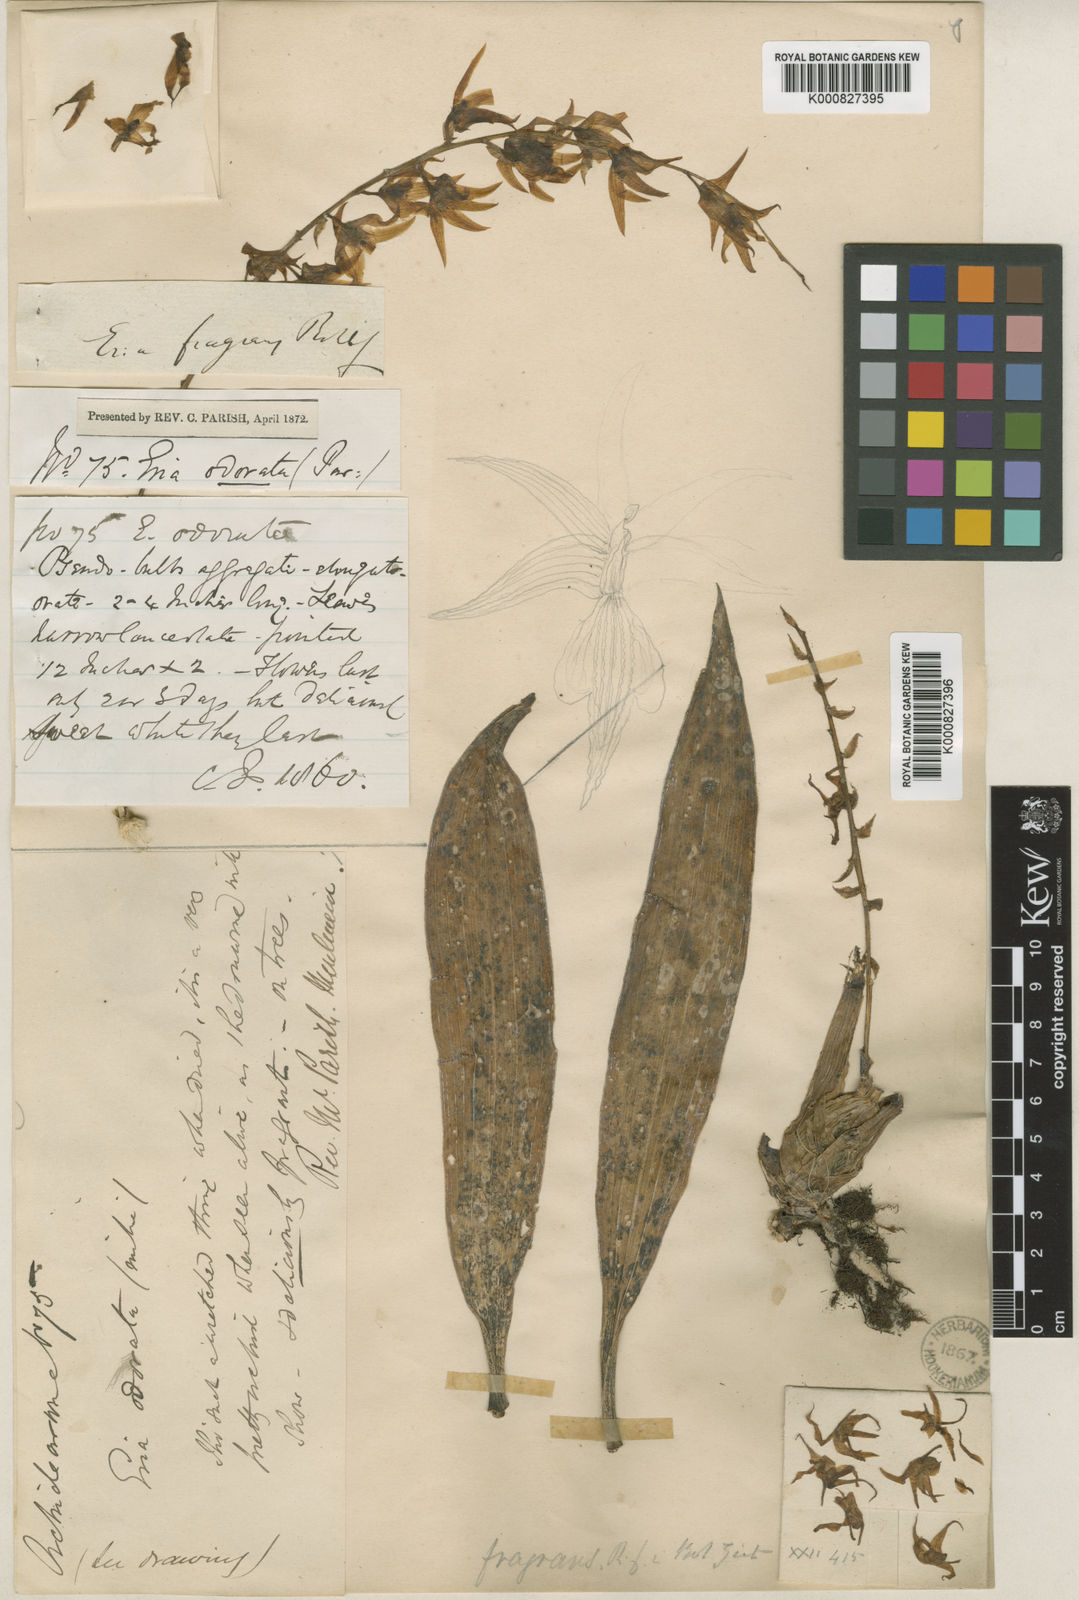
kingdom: Plantae
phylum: Tracheophyta
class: Liliopsida
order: Asparagales
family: Orchidaceae
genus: Eria
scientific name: Eria javanica
